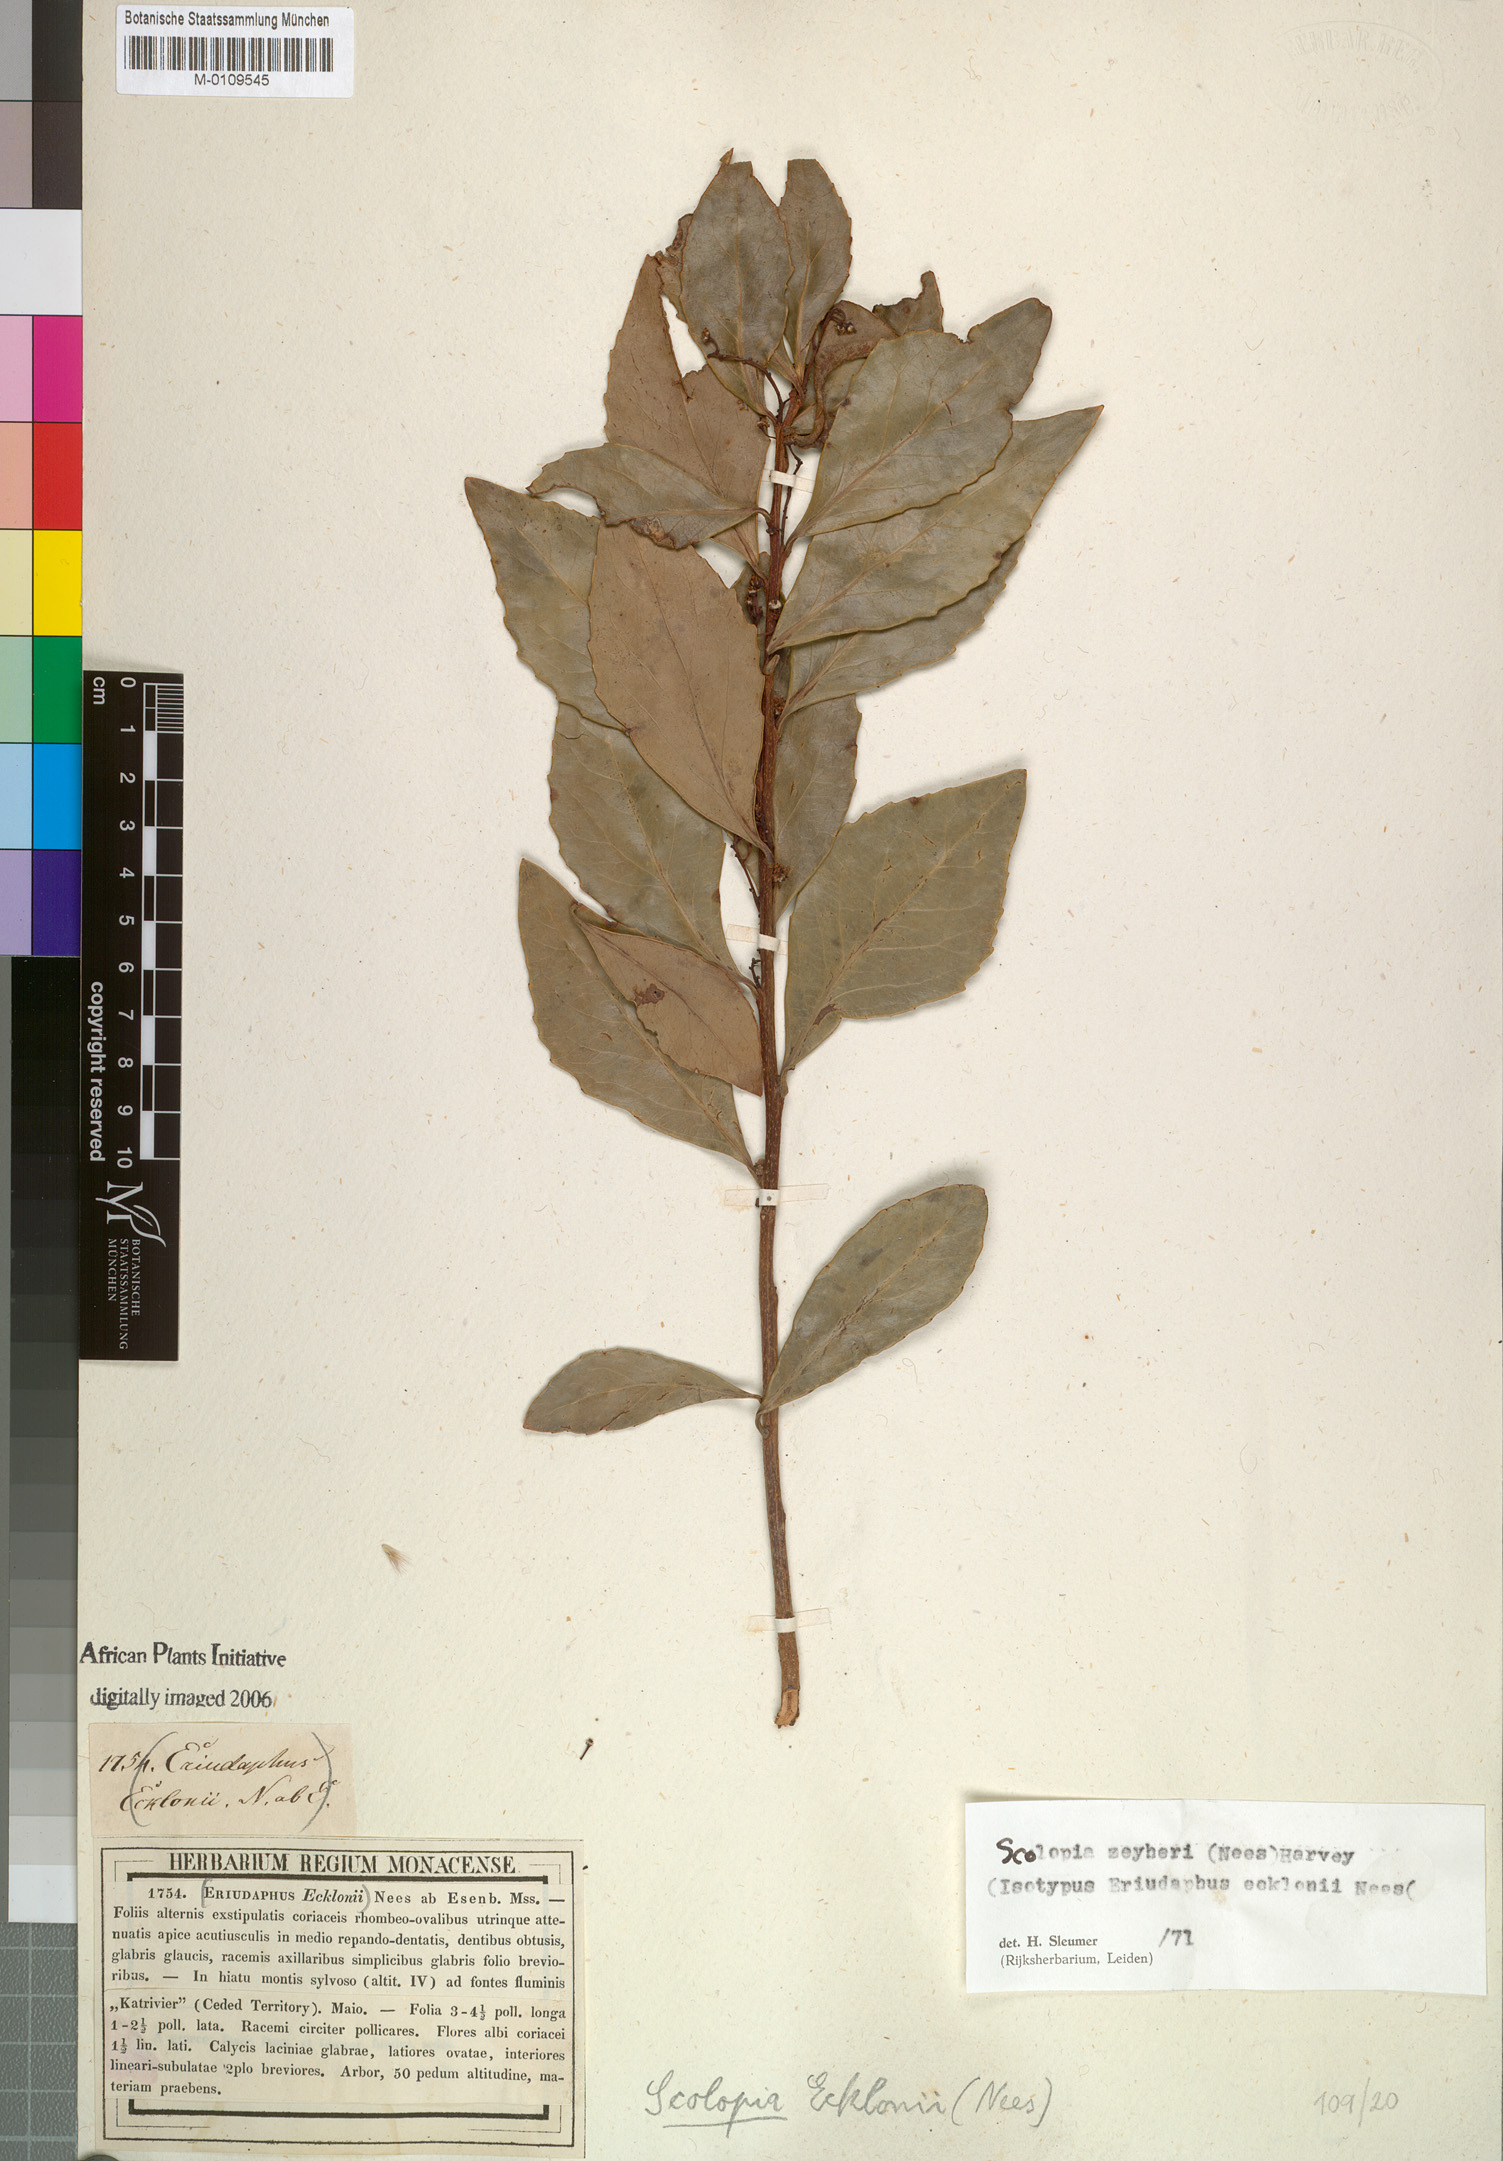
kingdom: Plantae
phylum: Tracheophyta
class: Magnoliopsida
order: Malpighiales
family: Salicaceae
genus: Scolopia
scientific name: Scolopia zeyheri
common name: Thorn pear
